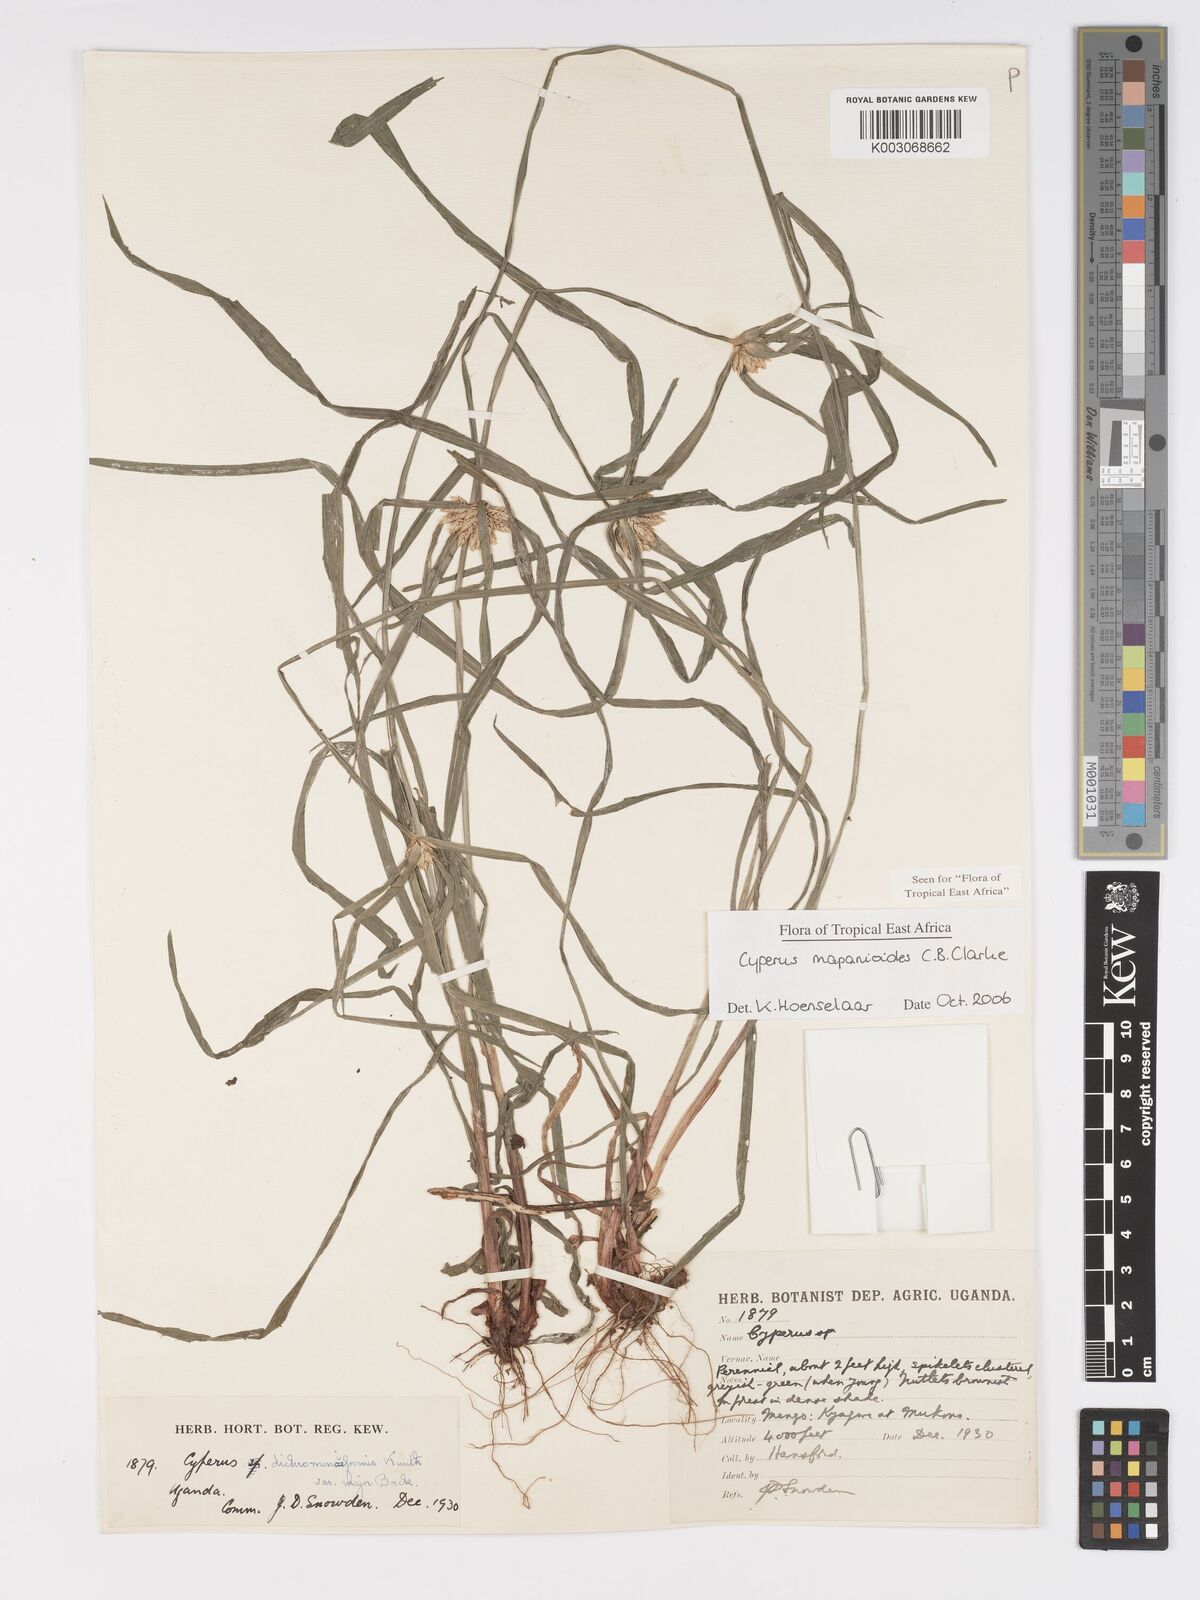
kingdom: Plantae
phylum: Tracheophyta
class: Liliopsida
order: Poales
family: Cyperaceae
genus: Cyperus
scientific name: Cyperus mapanioides
